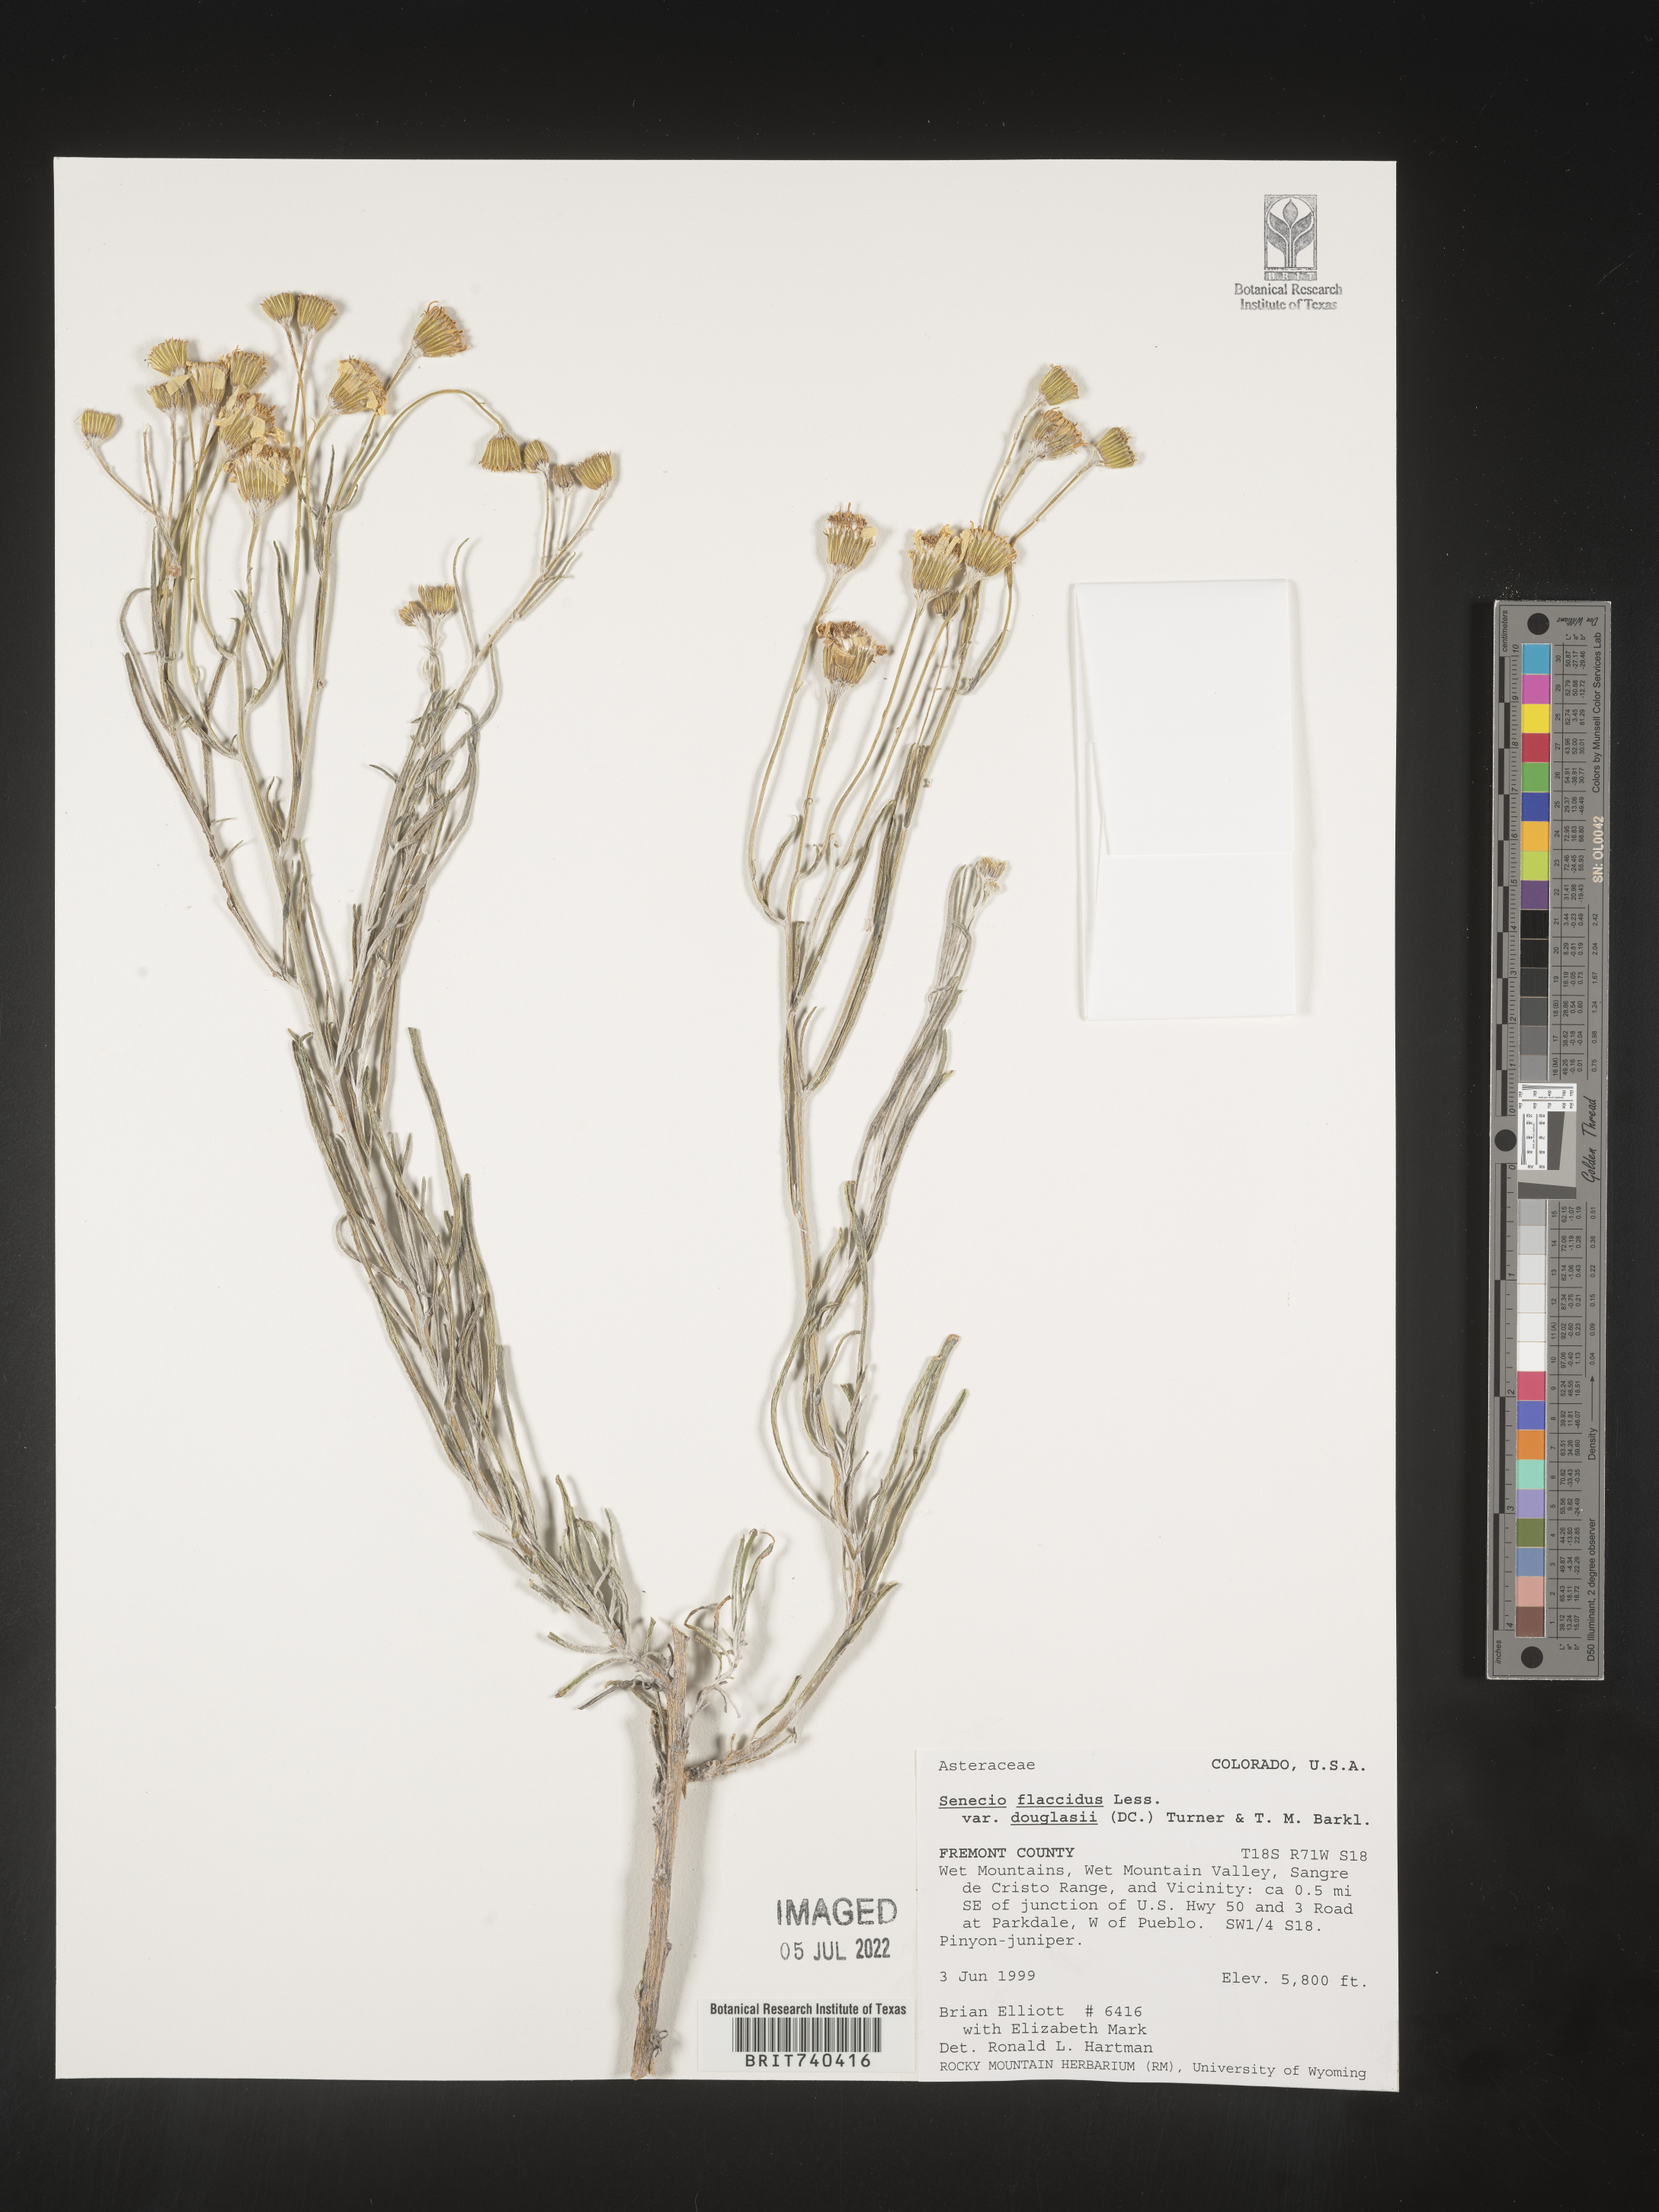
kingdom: Plantae
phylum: Tracheophyta
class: Magnoliopsida
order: Asterales
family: Asteraceae
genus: Senecio
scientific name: Senecio flaccidus
